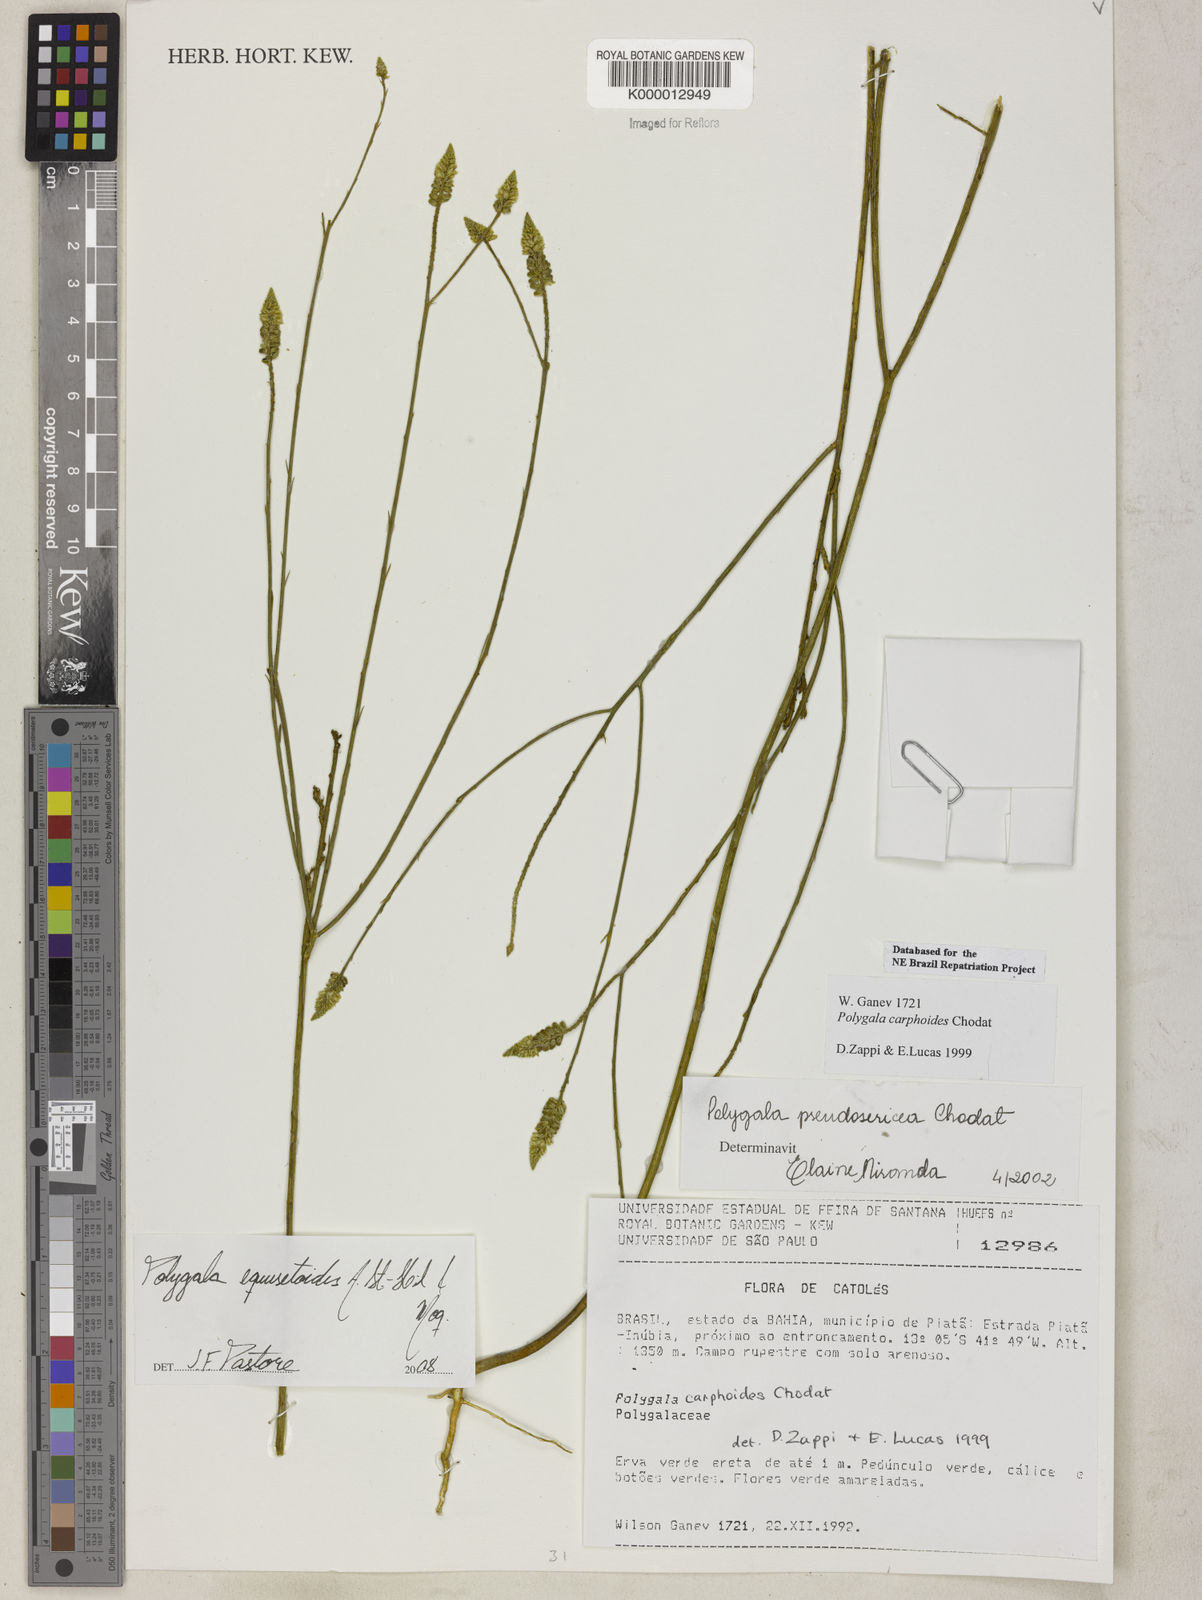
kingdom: Plantae
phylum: Tracheophyta
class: Magnoliopsida
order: Fabales
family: Polygalaceae
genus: Polygala
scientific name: Polygala pseudosericea
